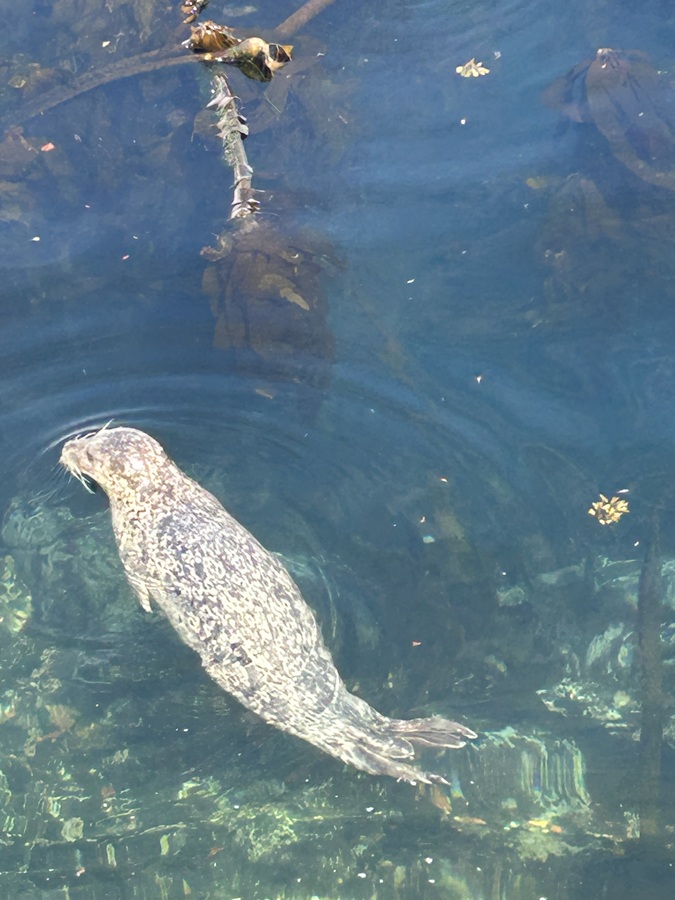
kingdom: Animalia
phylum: Chordata
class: Mammalia
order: Carnivora
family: Phocidae
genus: Phoca
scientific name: Phoca vitulina
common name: Harbor seal
